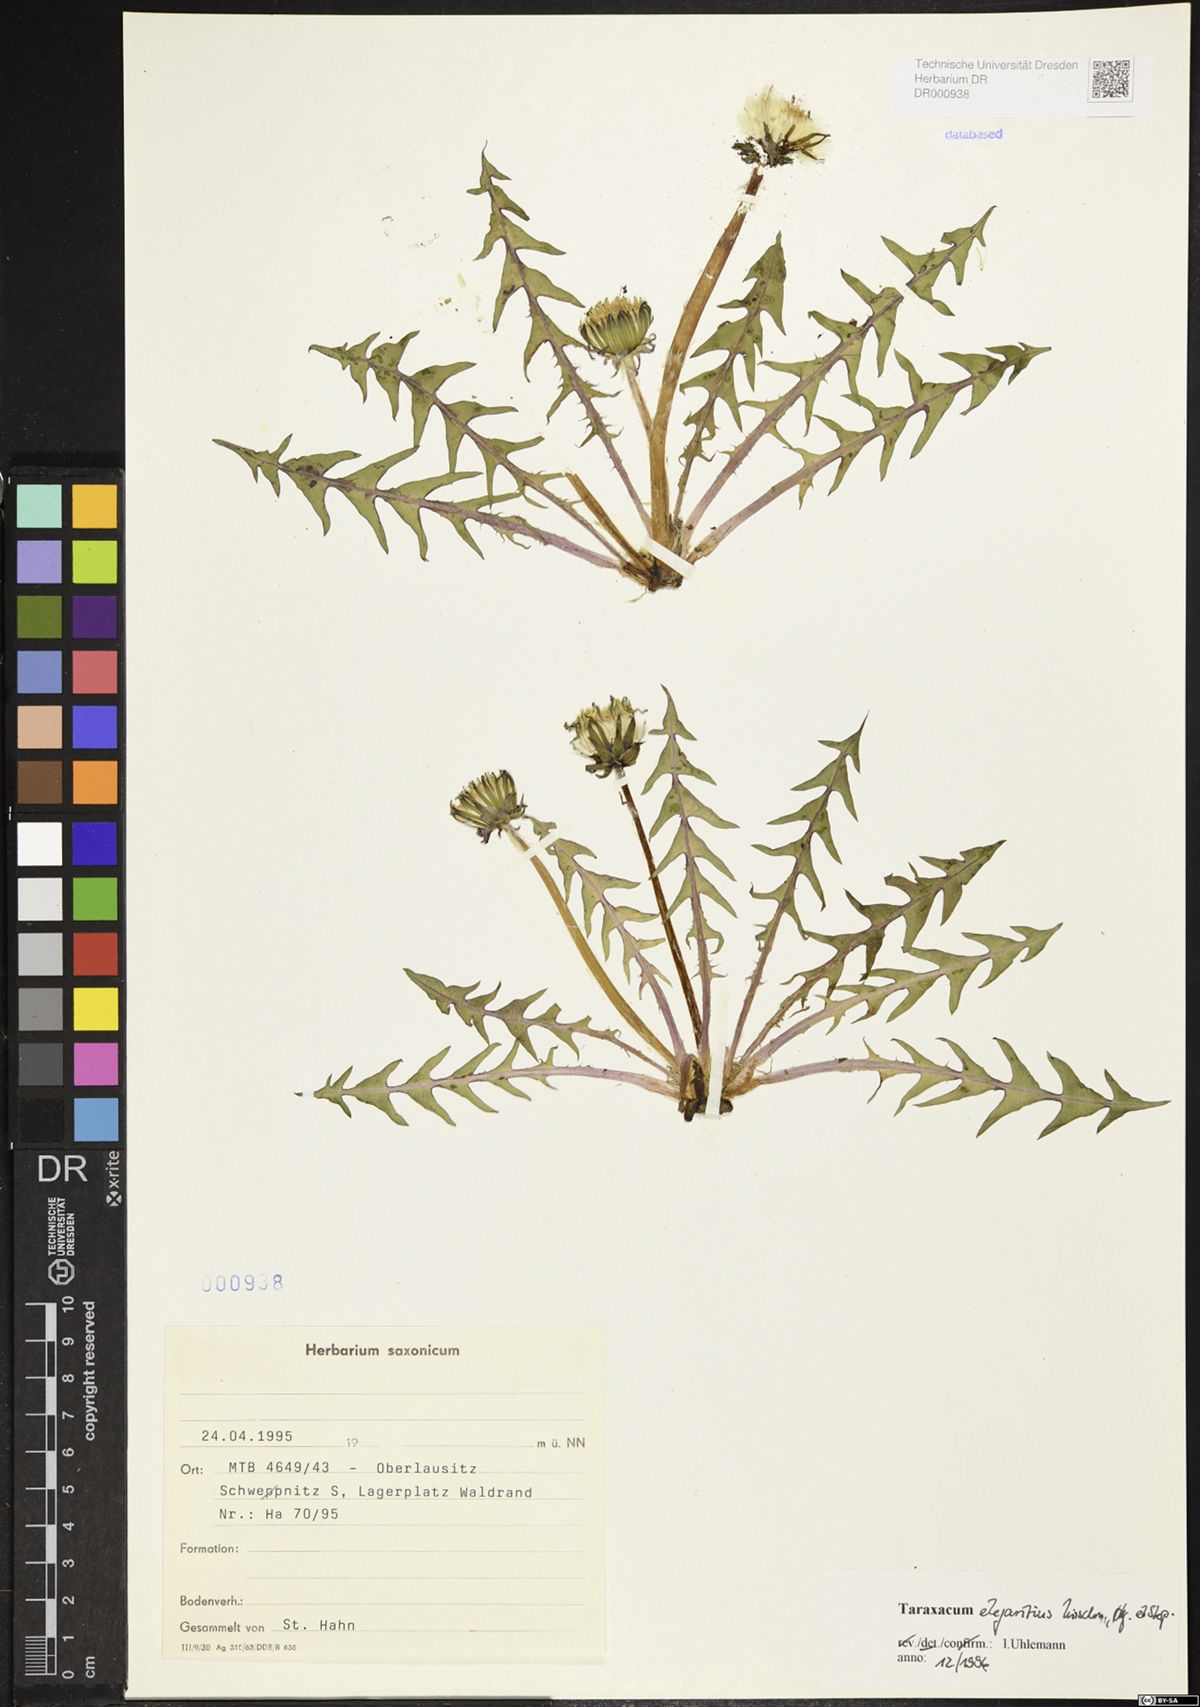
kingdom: Plantae
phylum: Tracheophyta
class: Magnoliopsida
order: Asterales
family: Asteraceae
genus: Taraxacum
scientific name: Taraxacum elegantius
